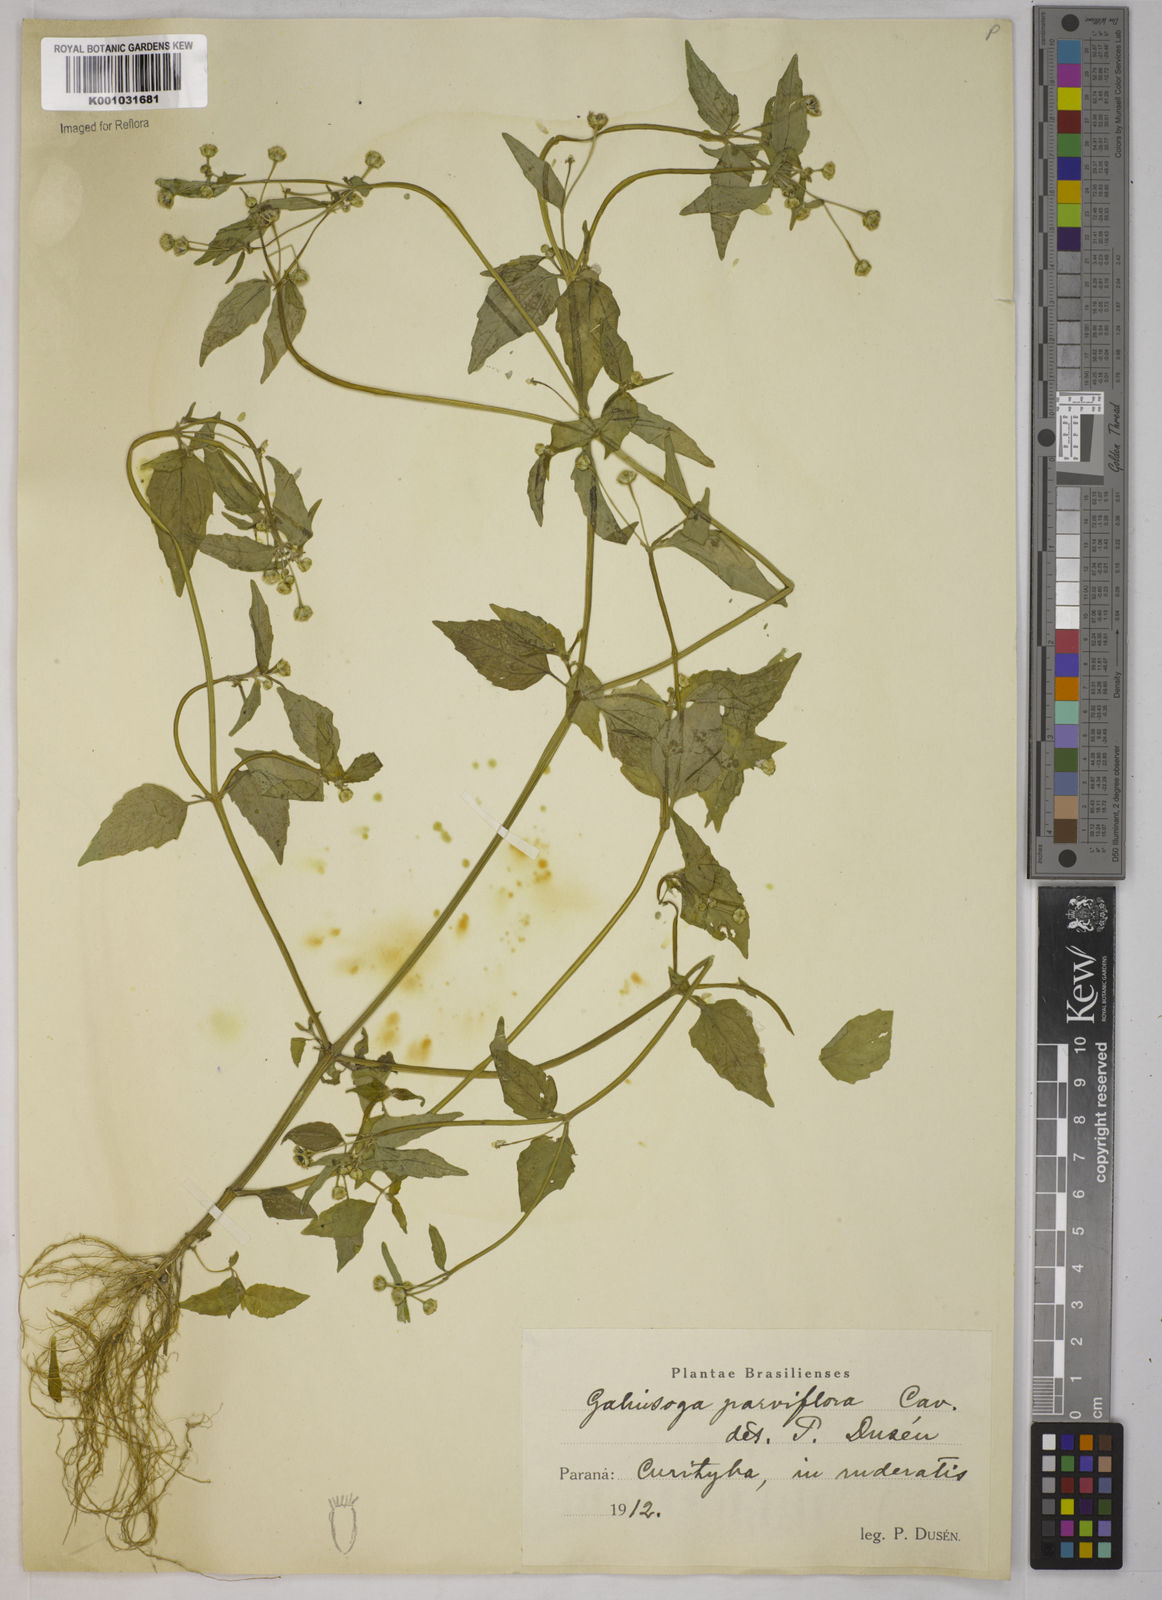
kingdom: Plantae
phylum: Tracheophyta
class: Magnoliopsida
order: Asterales
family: Asteraceae
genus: Galinsoga
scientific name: Galinsoga parviflora
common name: Gallant soldier
